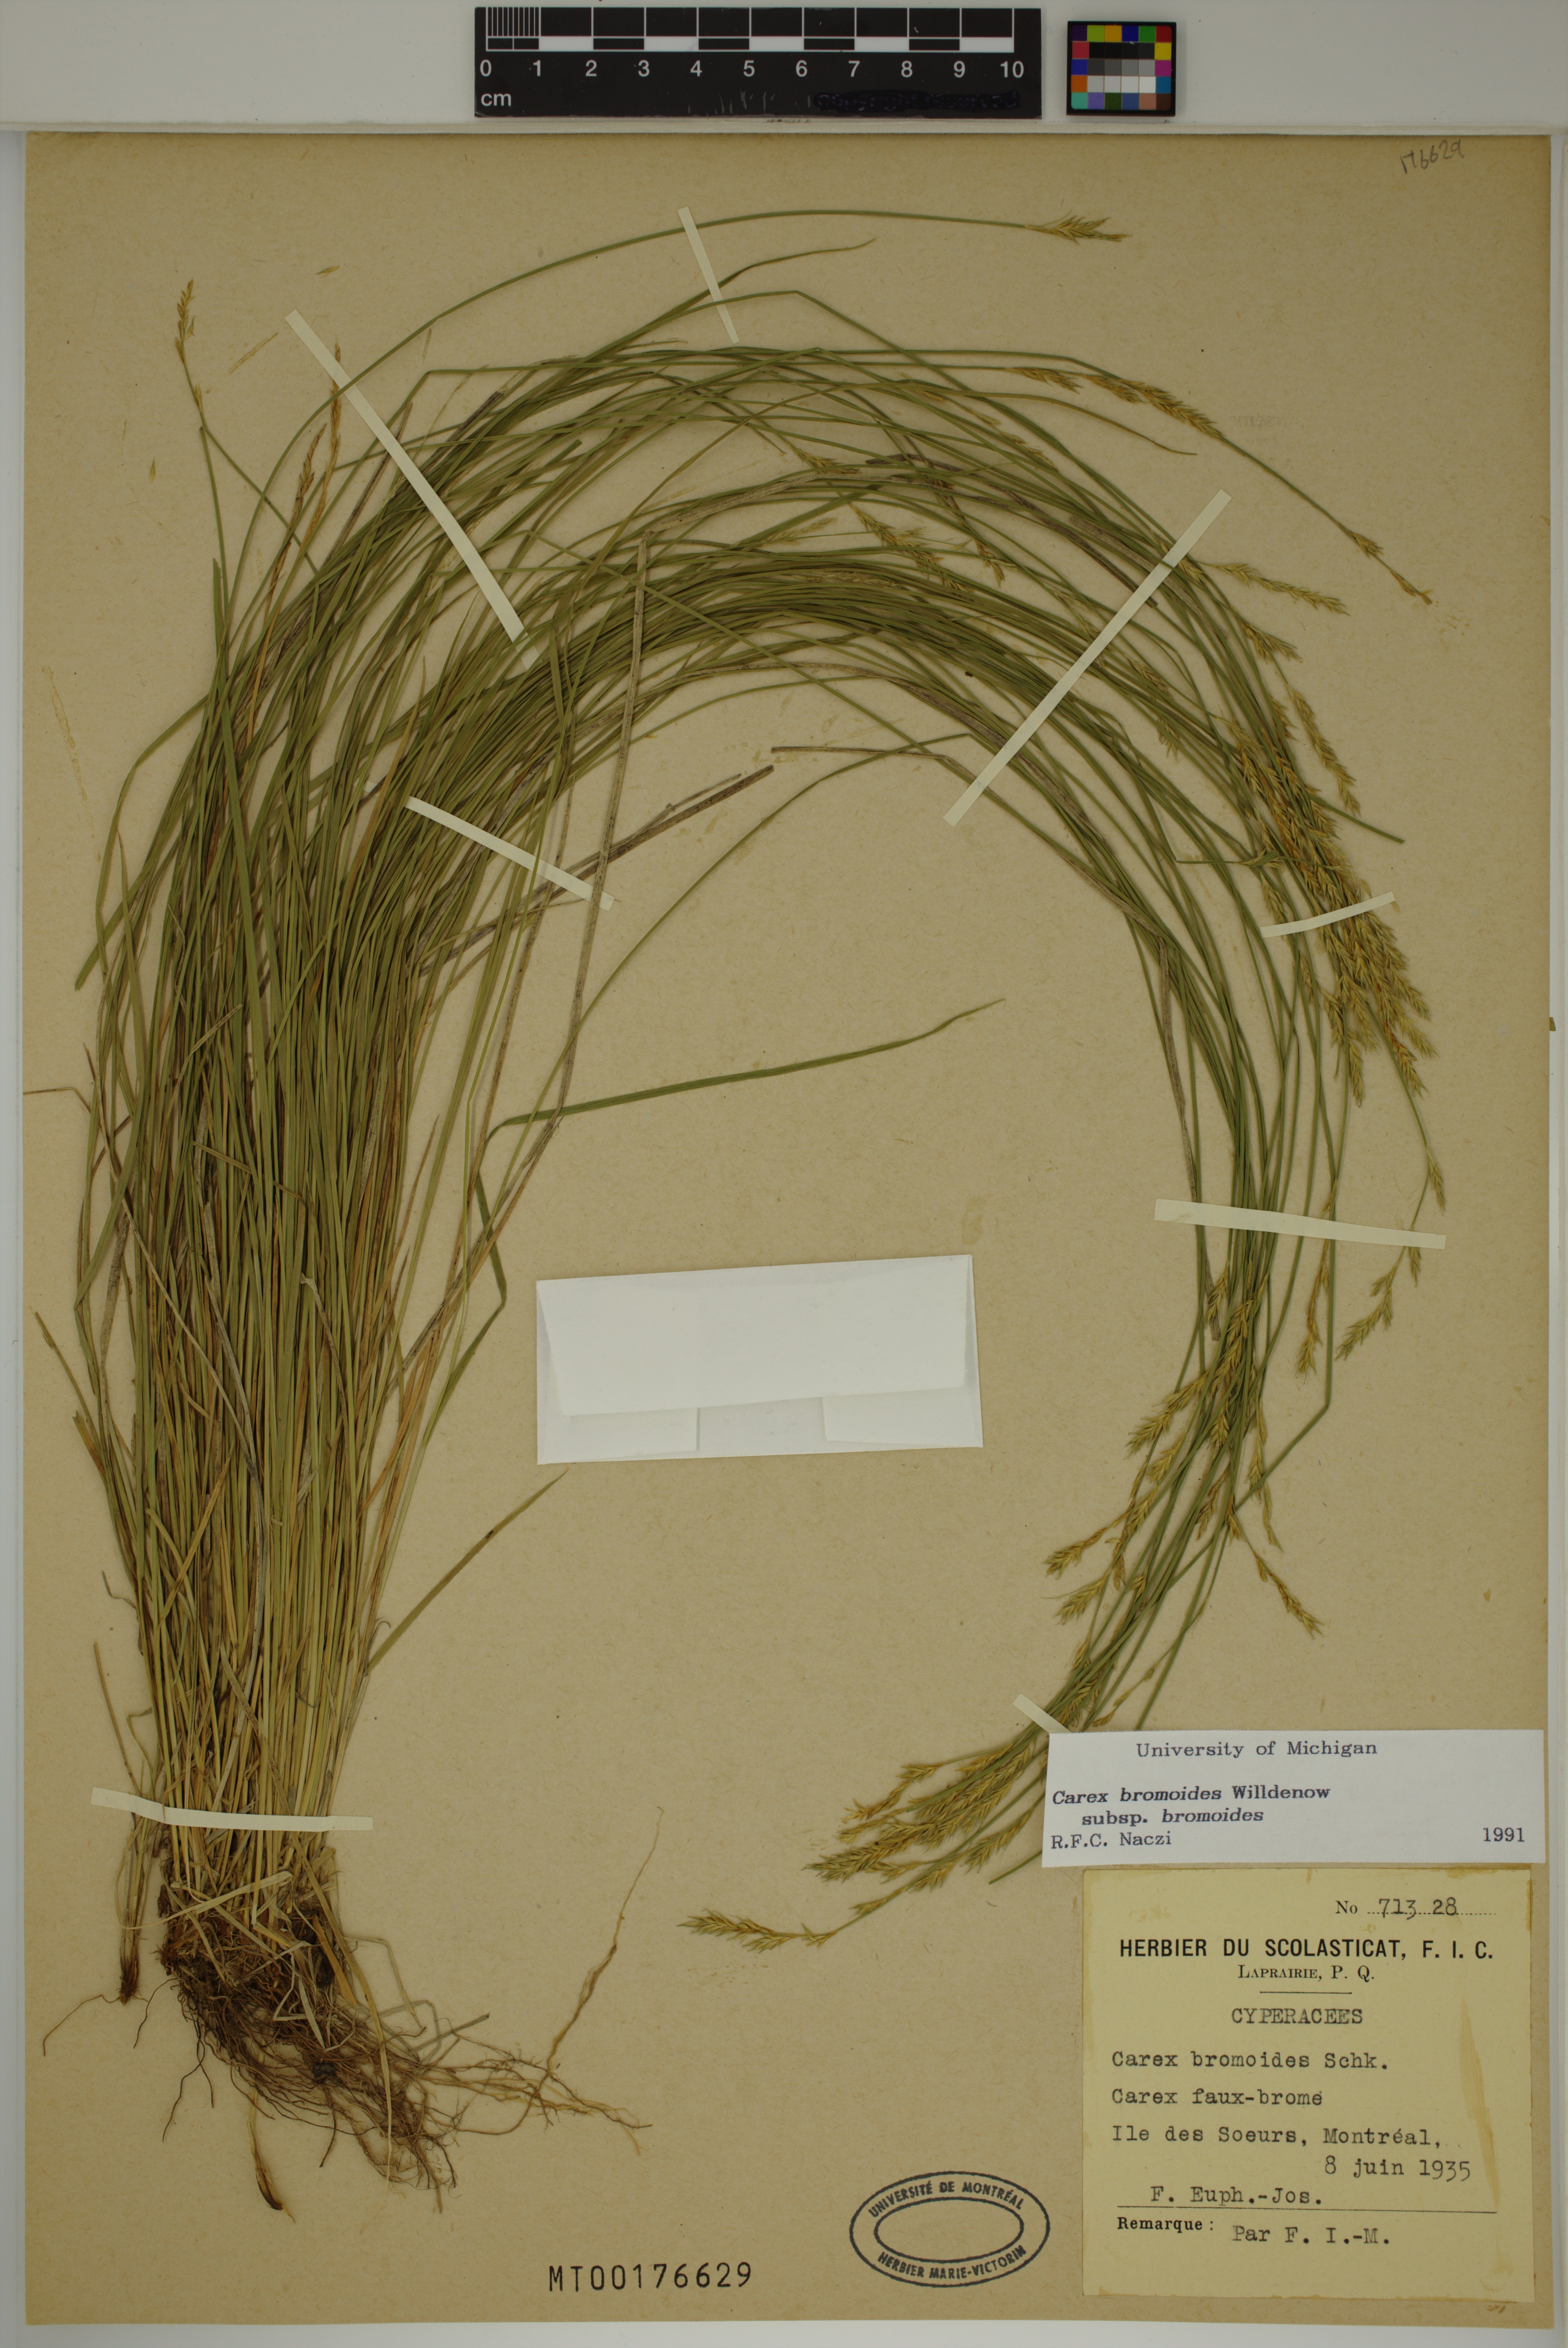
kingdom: Plantae
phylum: Tracheophyta
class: Liliopsida
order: Poales
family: Cyperaceae
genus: Carex
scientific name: Carex bromoides
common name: Brome hummock sedge
